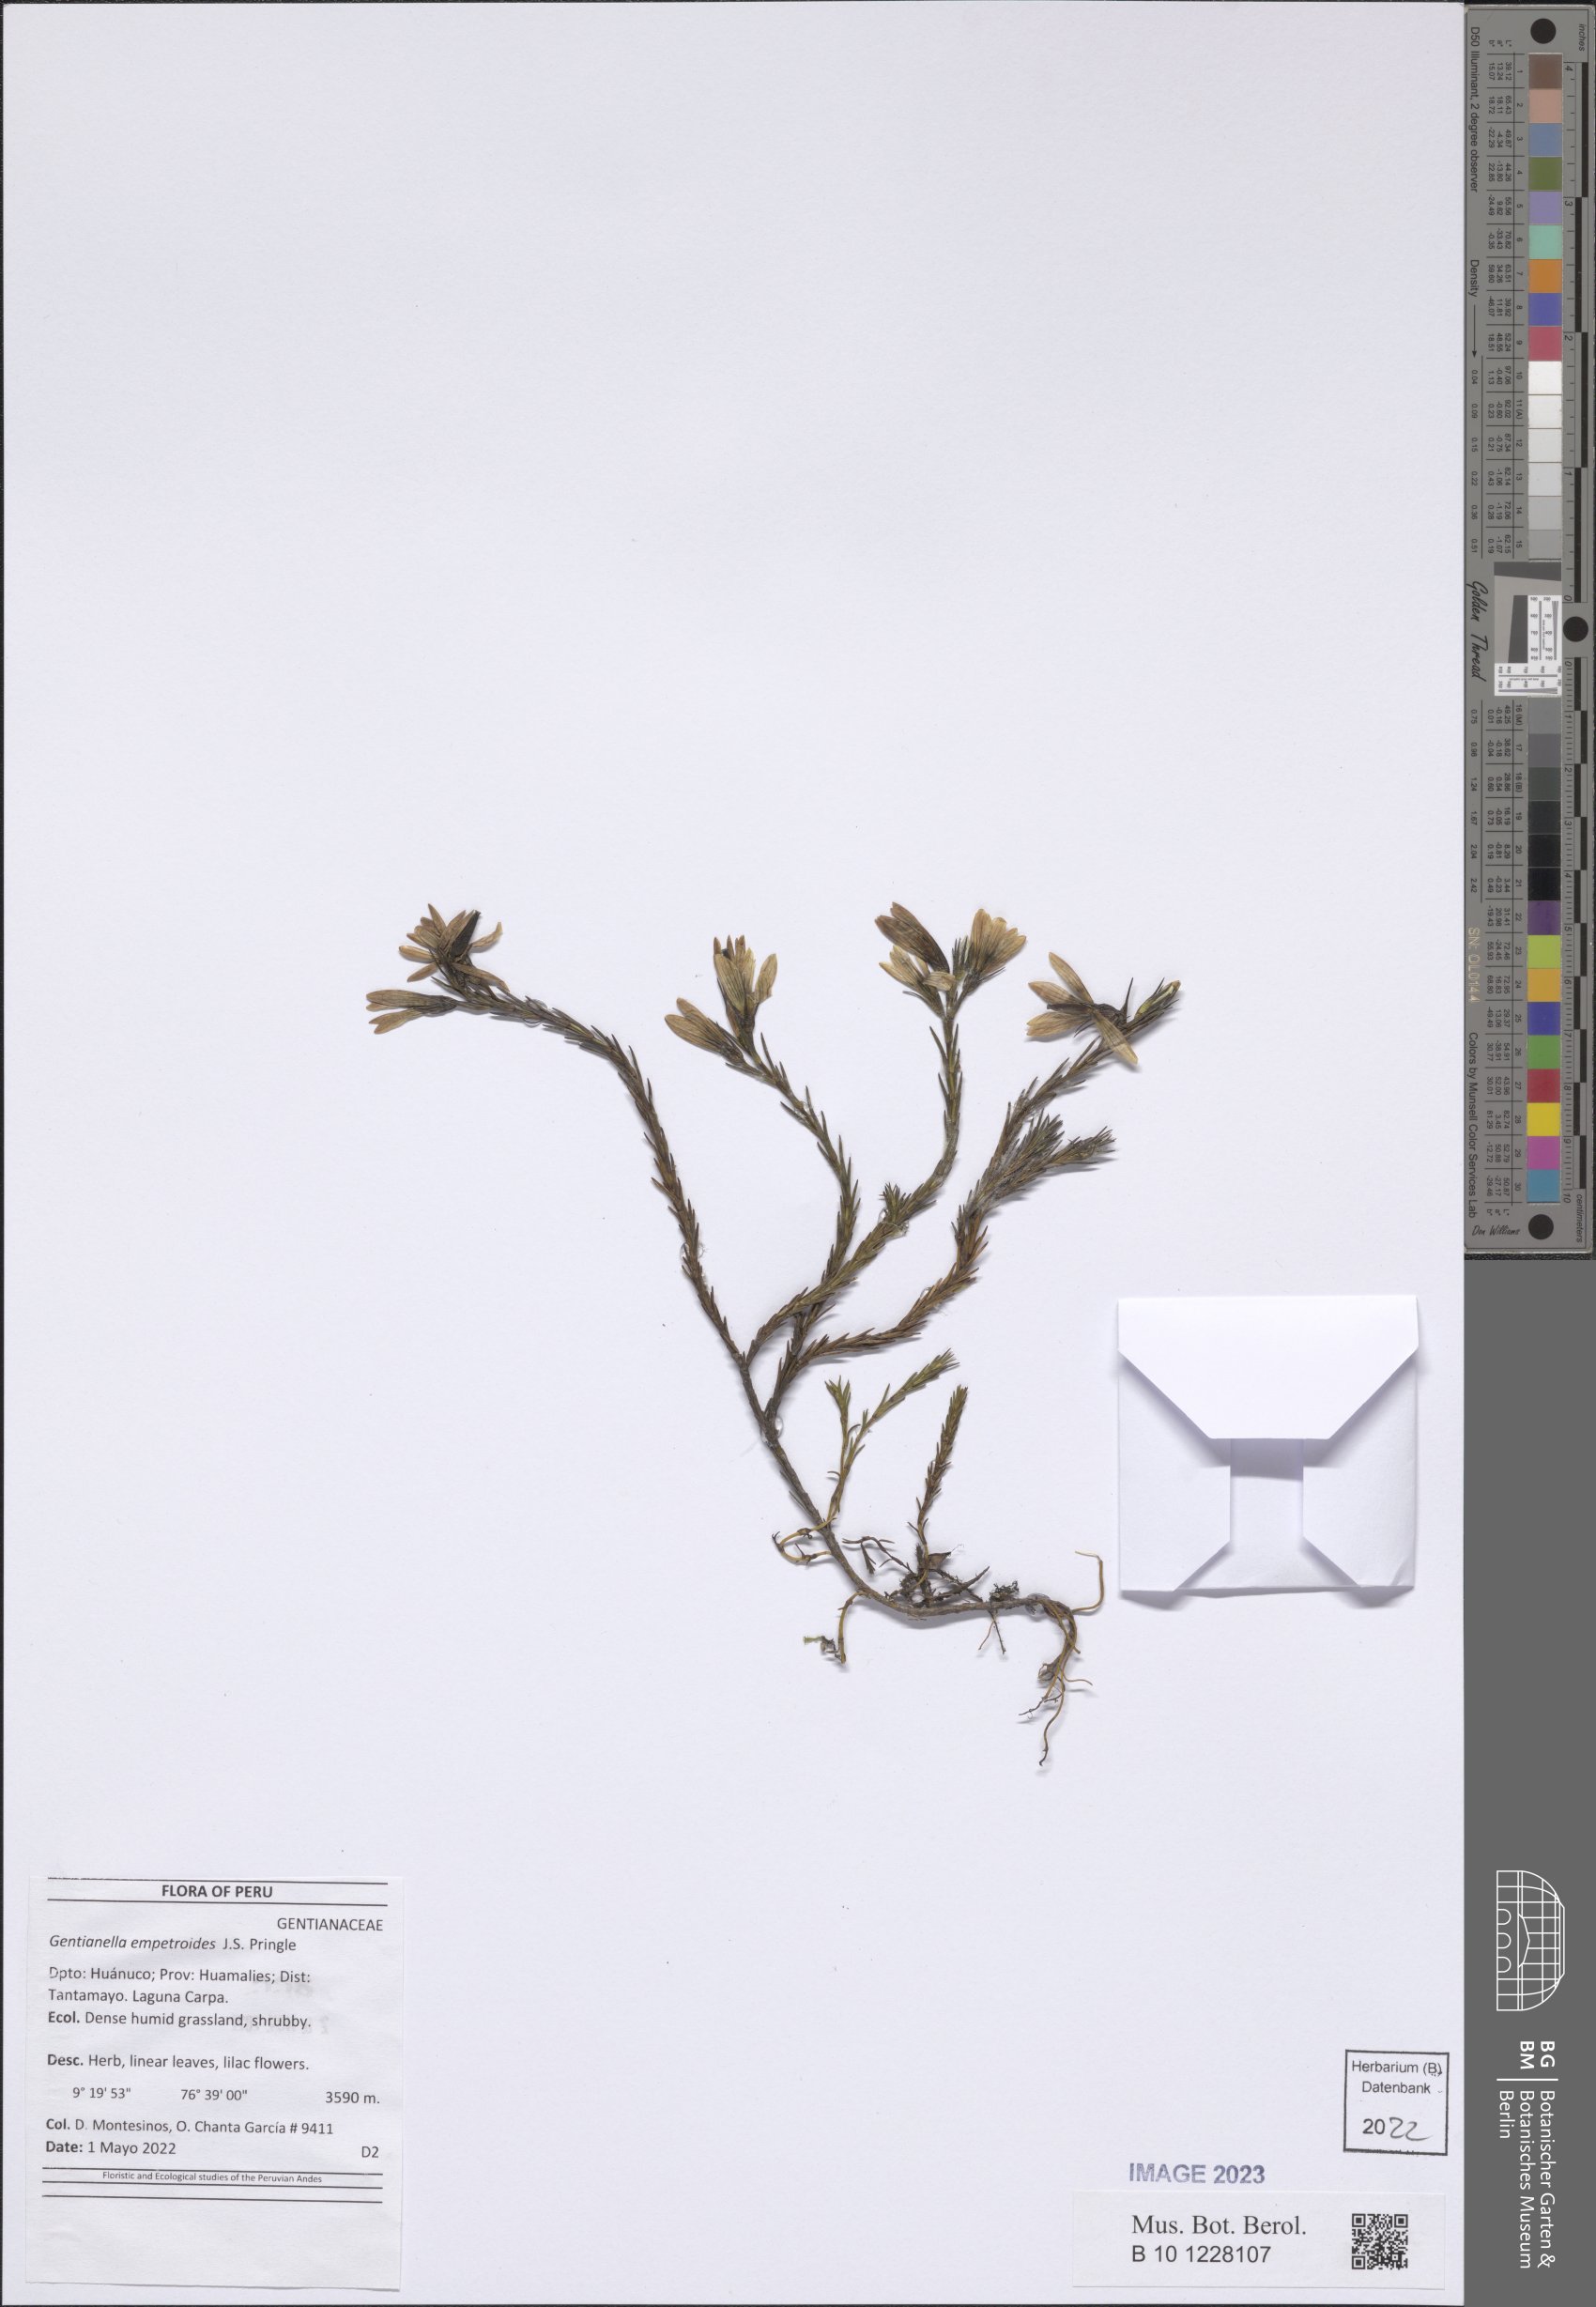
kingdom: Plantae
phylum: Tracheophyta
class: Magnoliopsida
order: Gentianales
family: Gentianaceae
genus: Gentianella
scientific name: Gentianella empetroides
